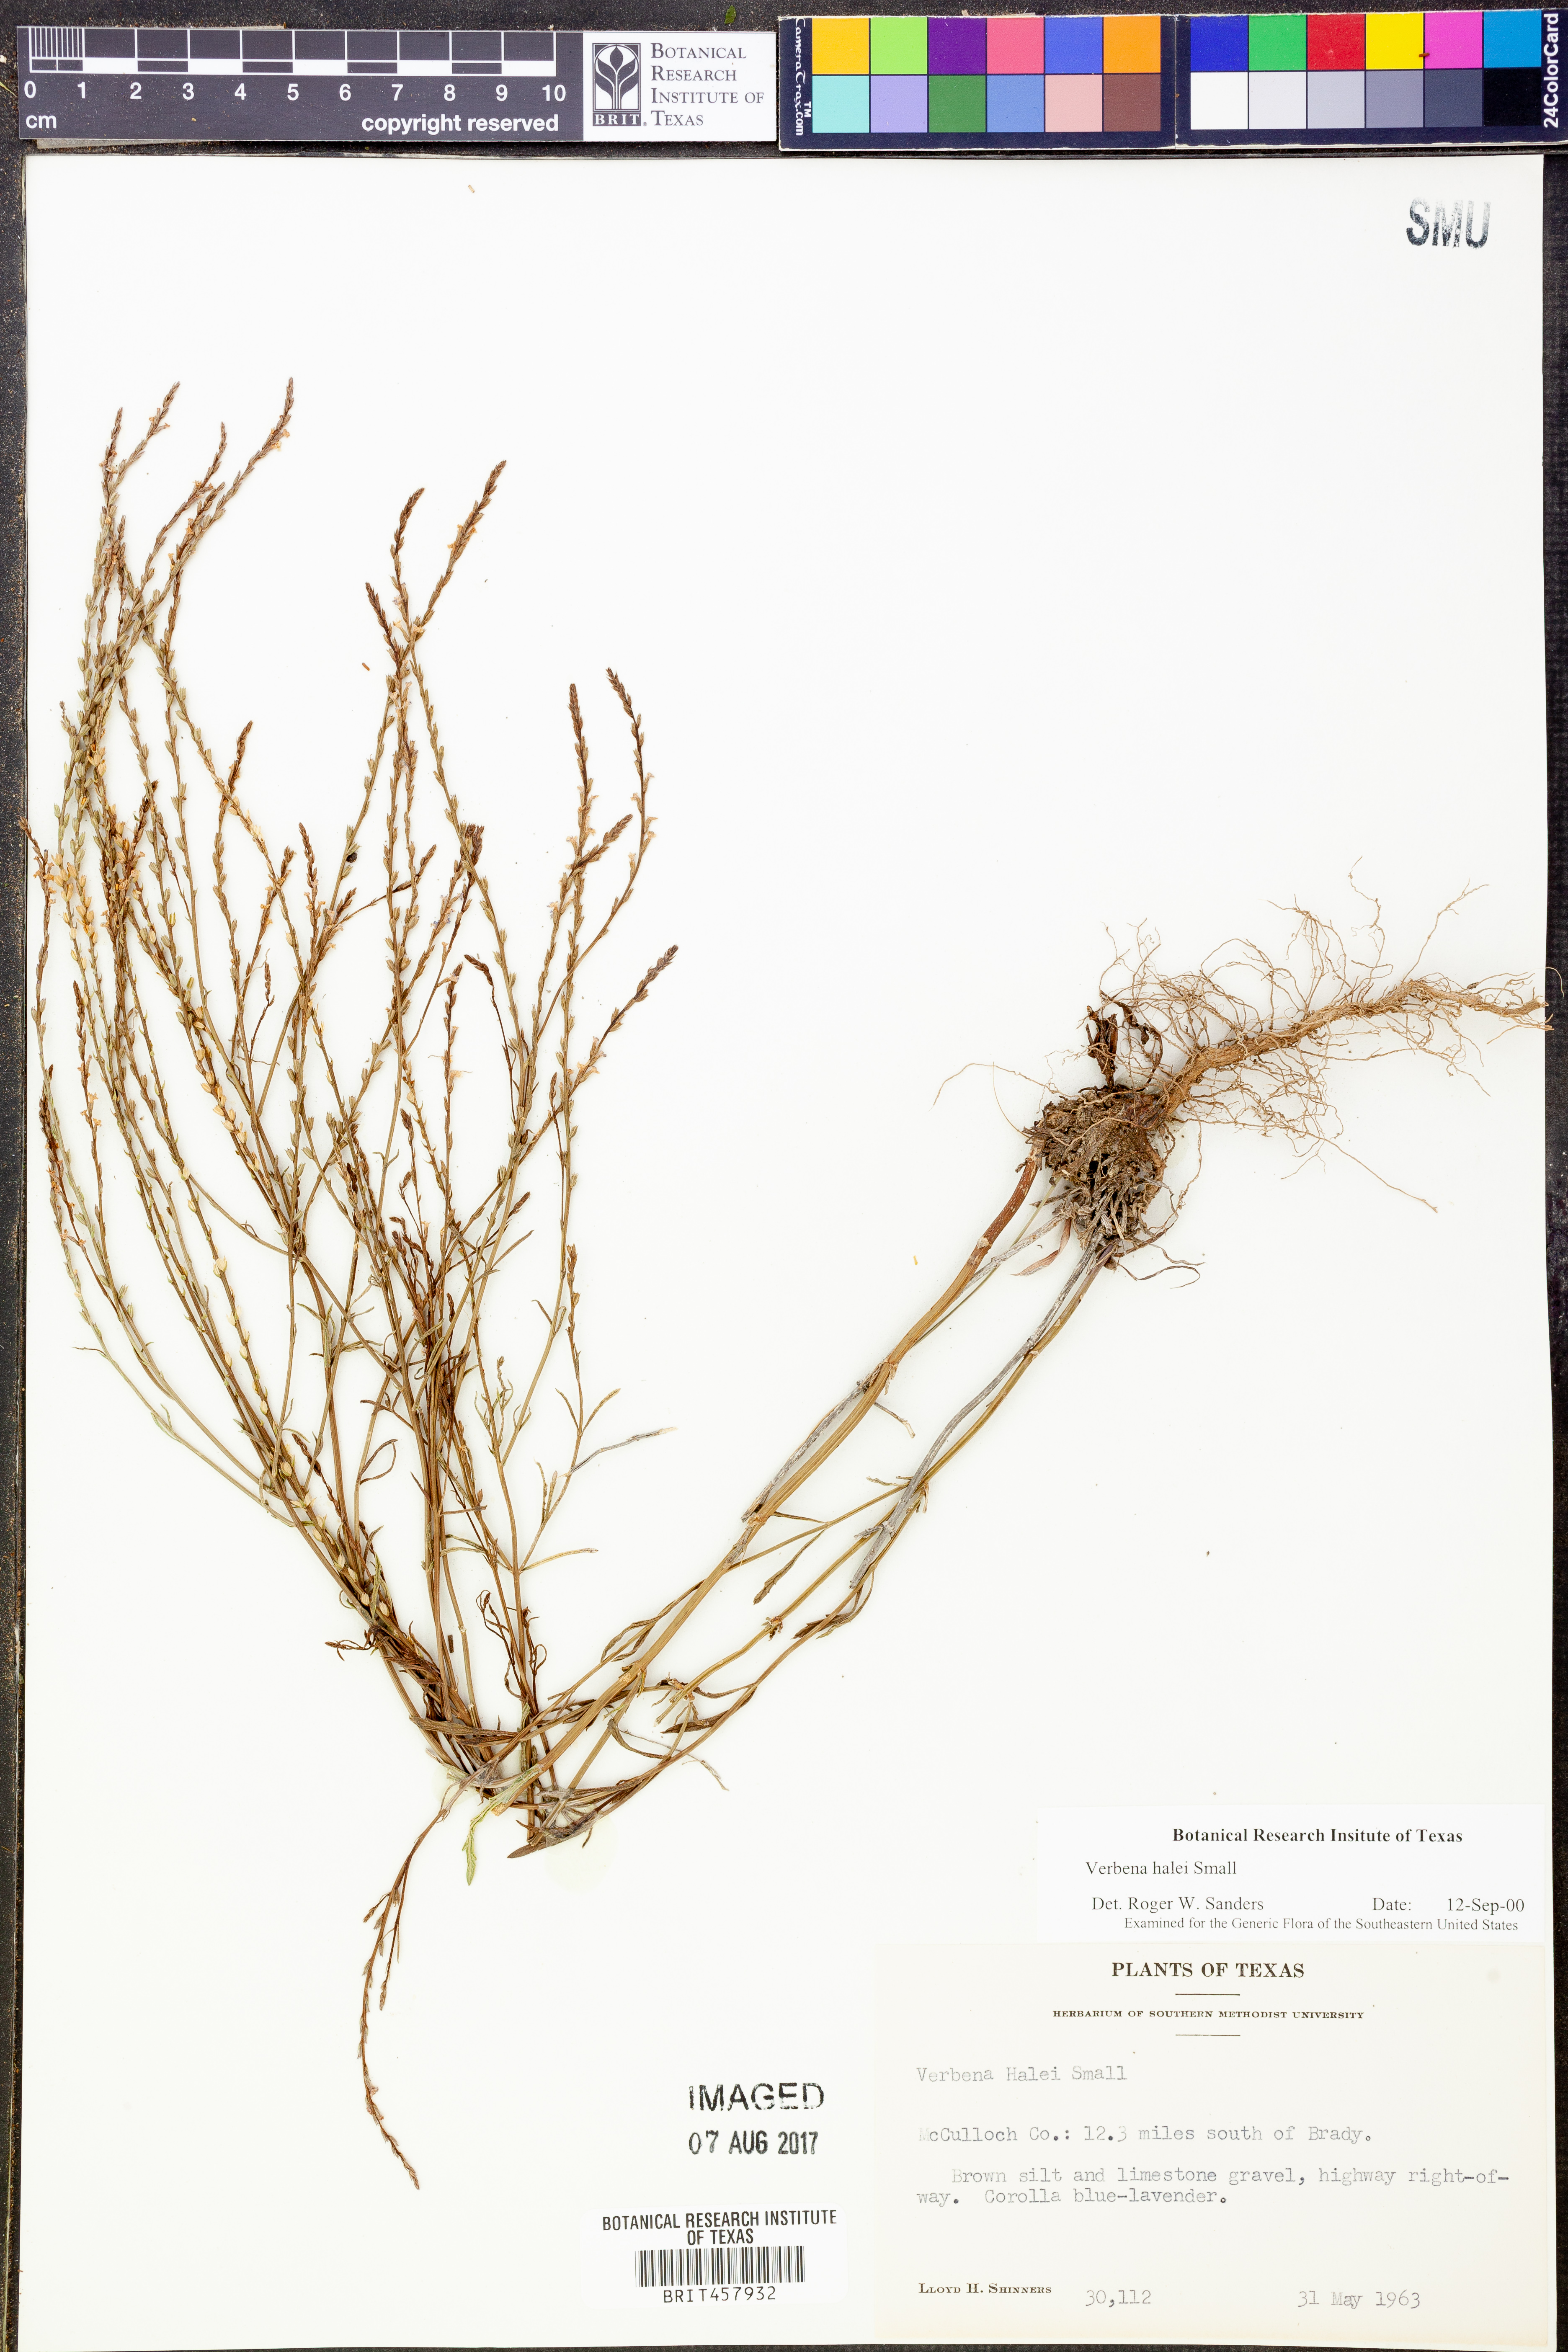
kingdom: Plantae
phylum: Tracheophyta
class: Magnoliopsida
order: Lamiales
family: Verbenaceae
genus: Verbena
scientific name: Verbena halei
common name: Texas vervain
